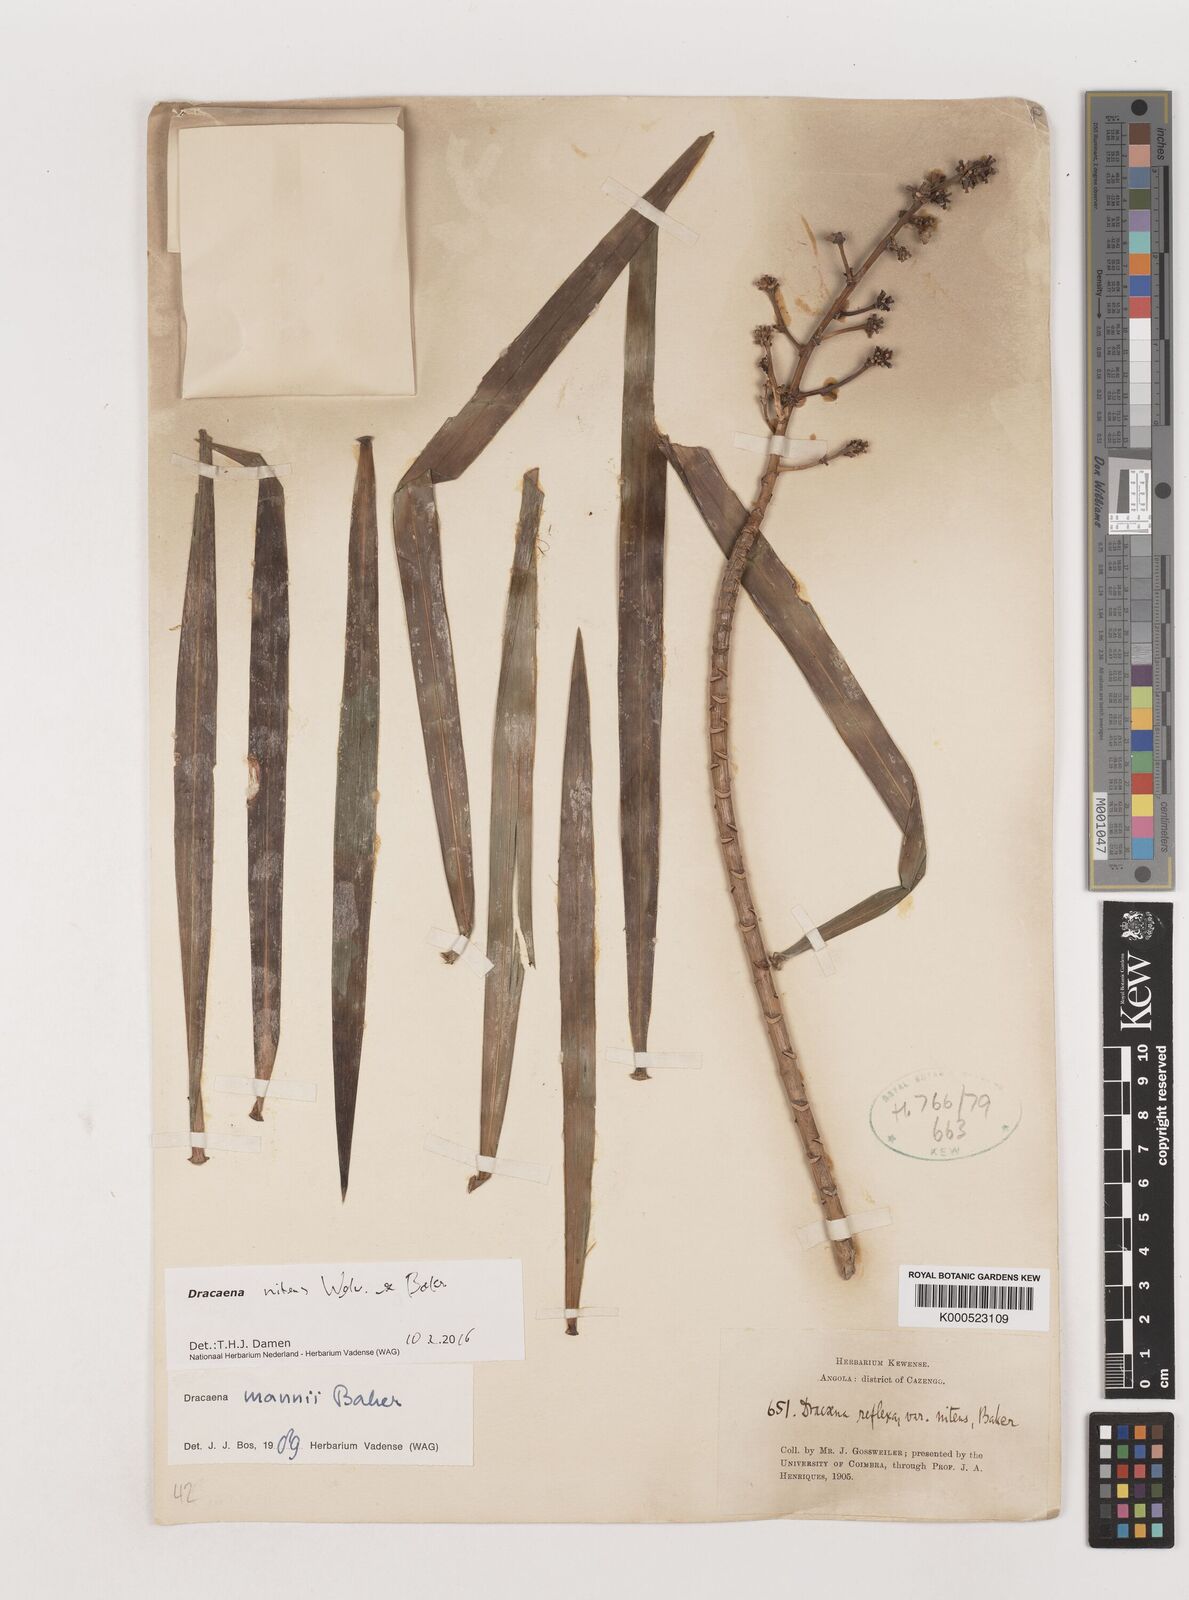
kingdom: Plantae
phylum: Tracheophyta
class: Liliopsida
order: Asparagales
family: Asparagaceae
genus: Dracaena
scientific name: Dracaena nitens
